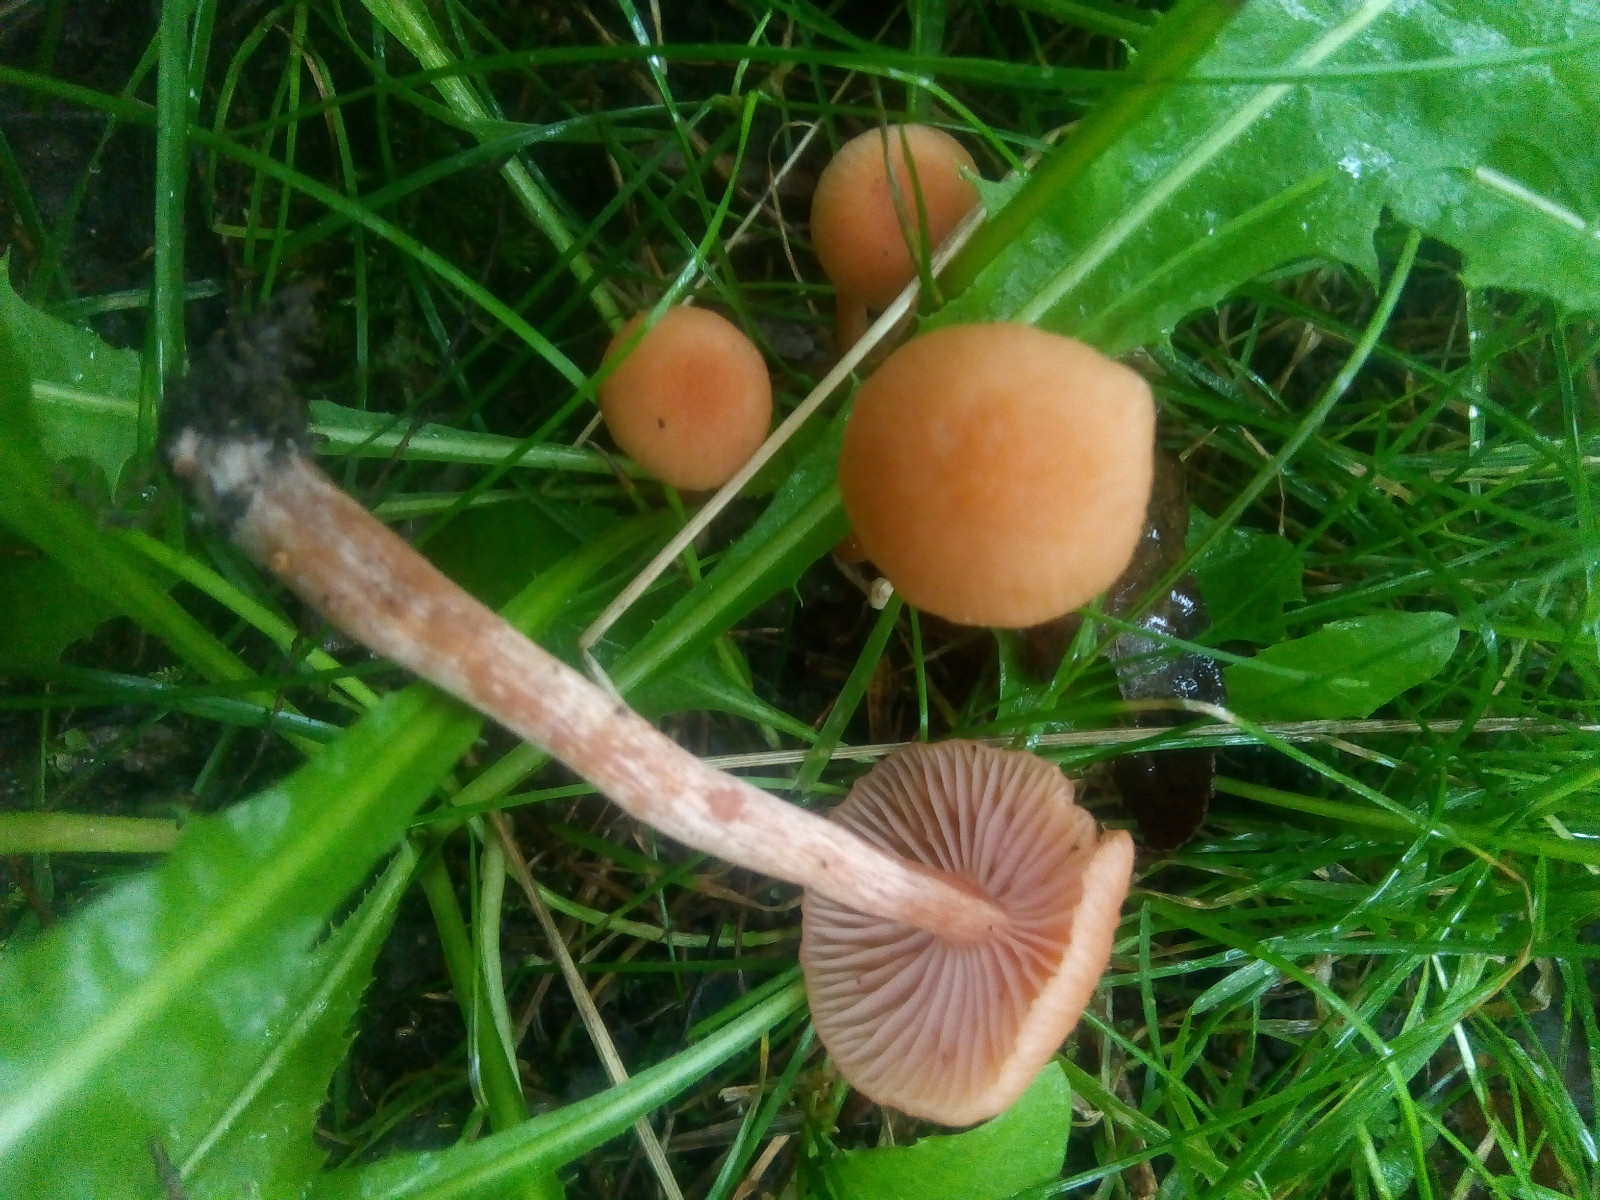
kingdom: Fungi
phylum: Basidiomycota
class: Agaricomycetes
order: Agaricales
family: Hydnangiaceae
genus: Laccaria
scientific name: Laccaria laccata
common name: rød ametysthat
